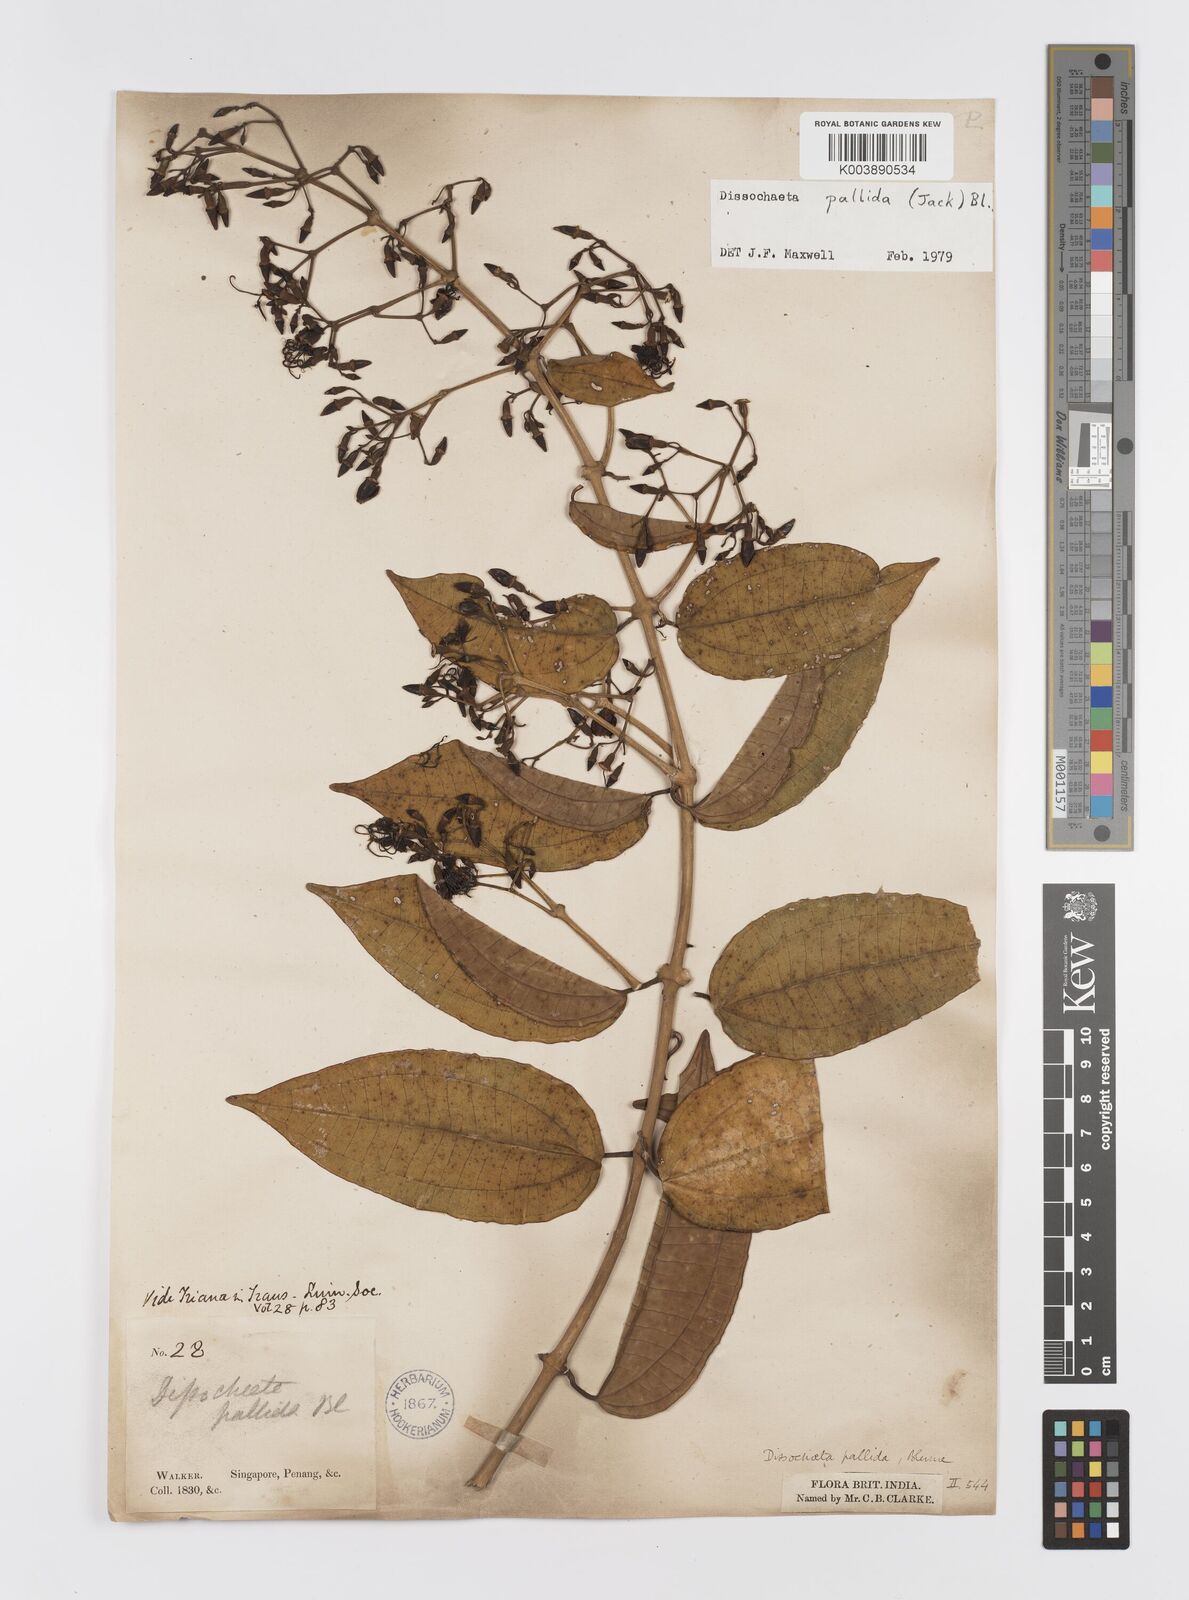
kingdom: Plantae
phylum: Tracheophyta
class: Magnoliopsida
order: Myrtales
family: Melastomataceae
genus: Dissochaeta
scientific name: Dissochaeta pallida
